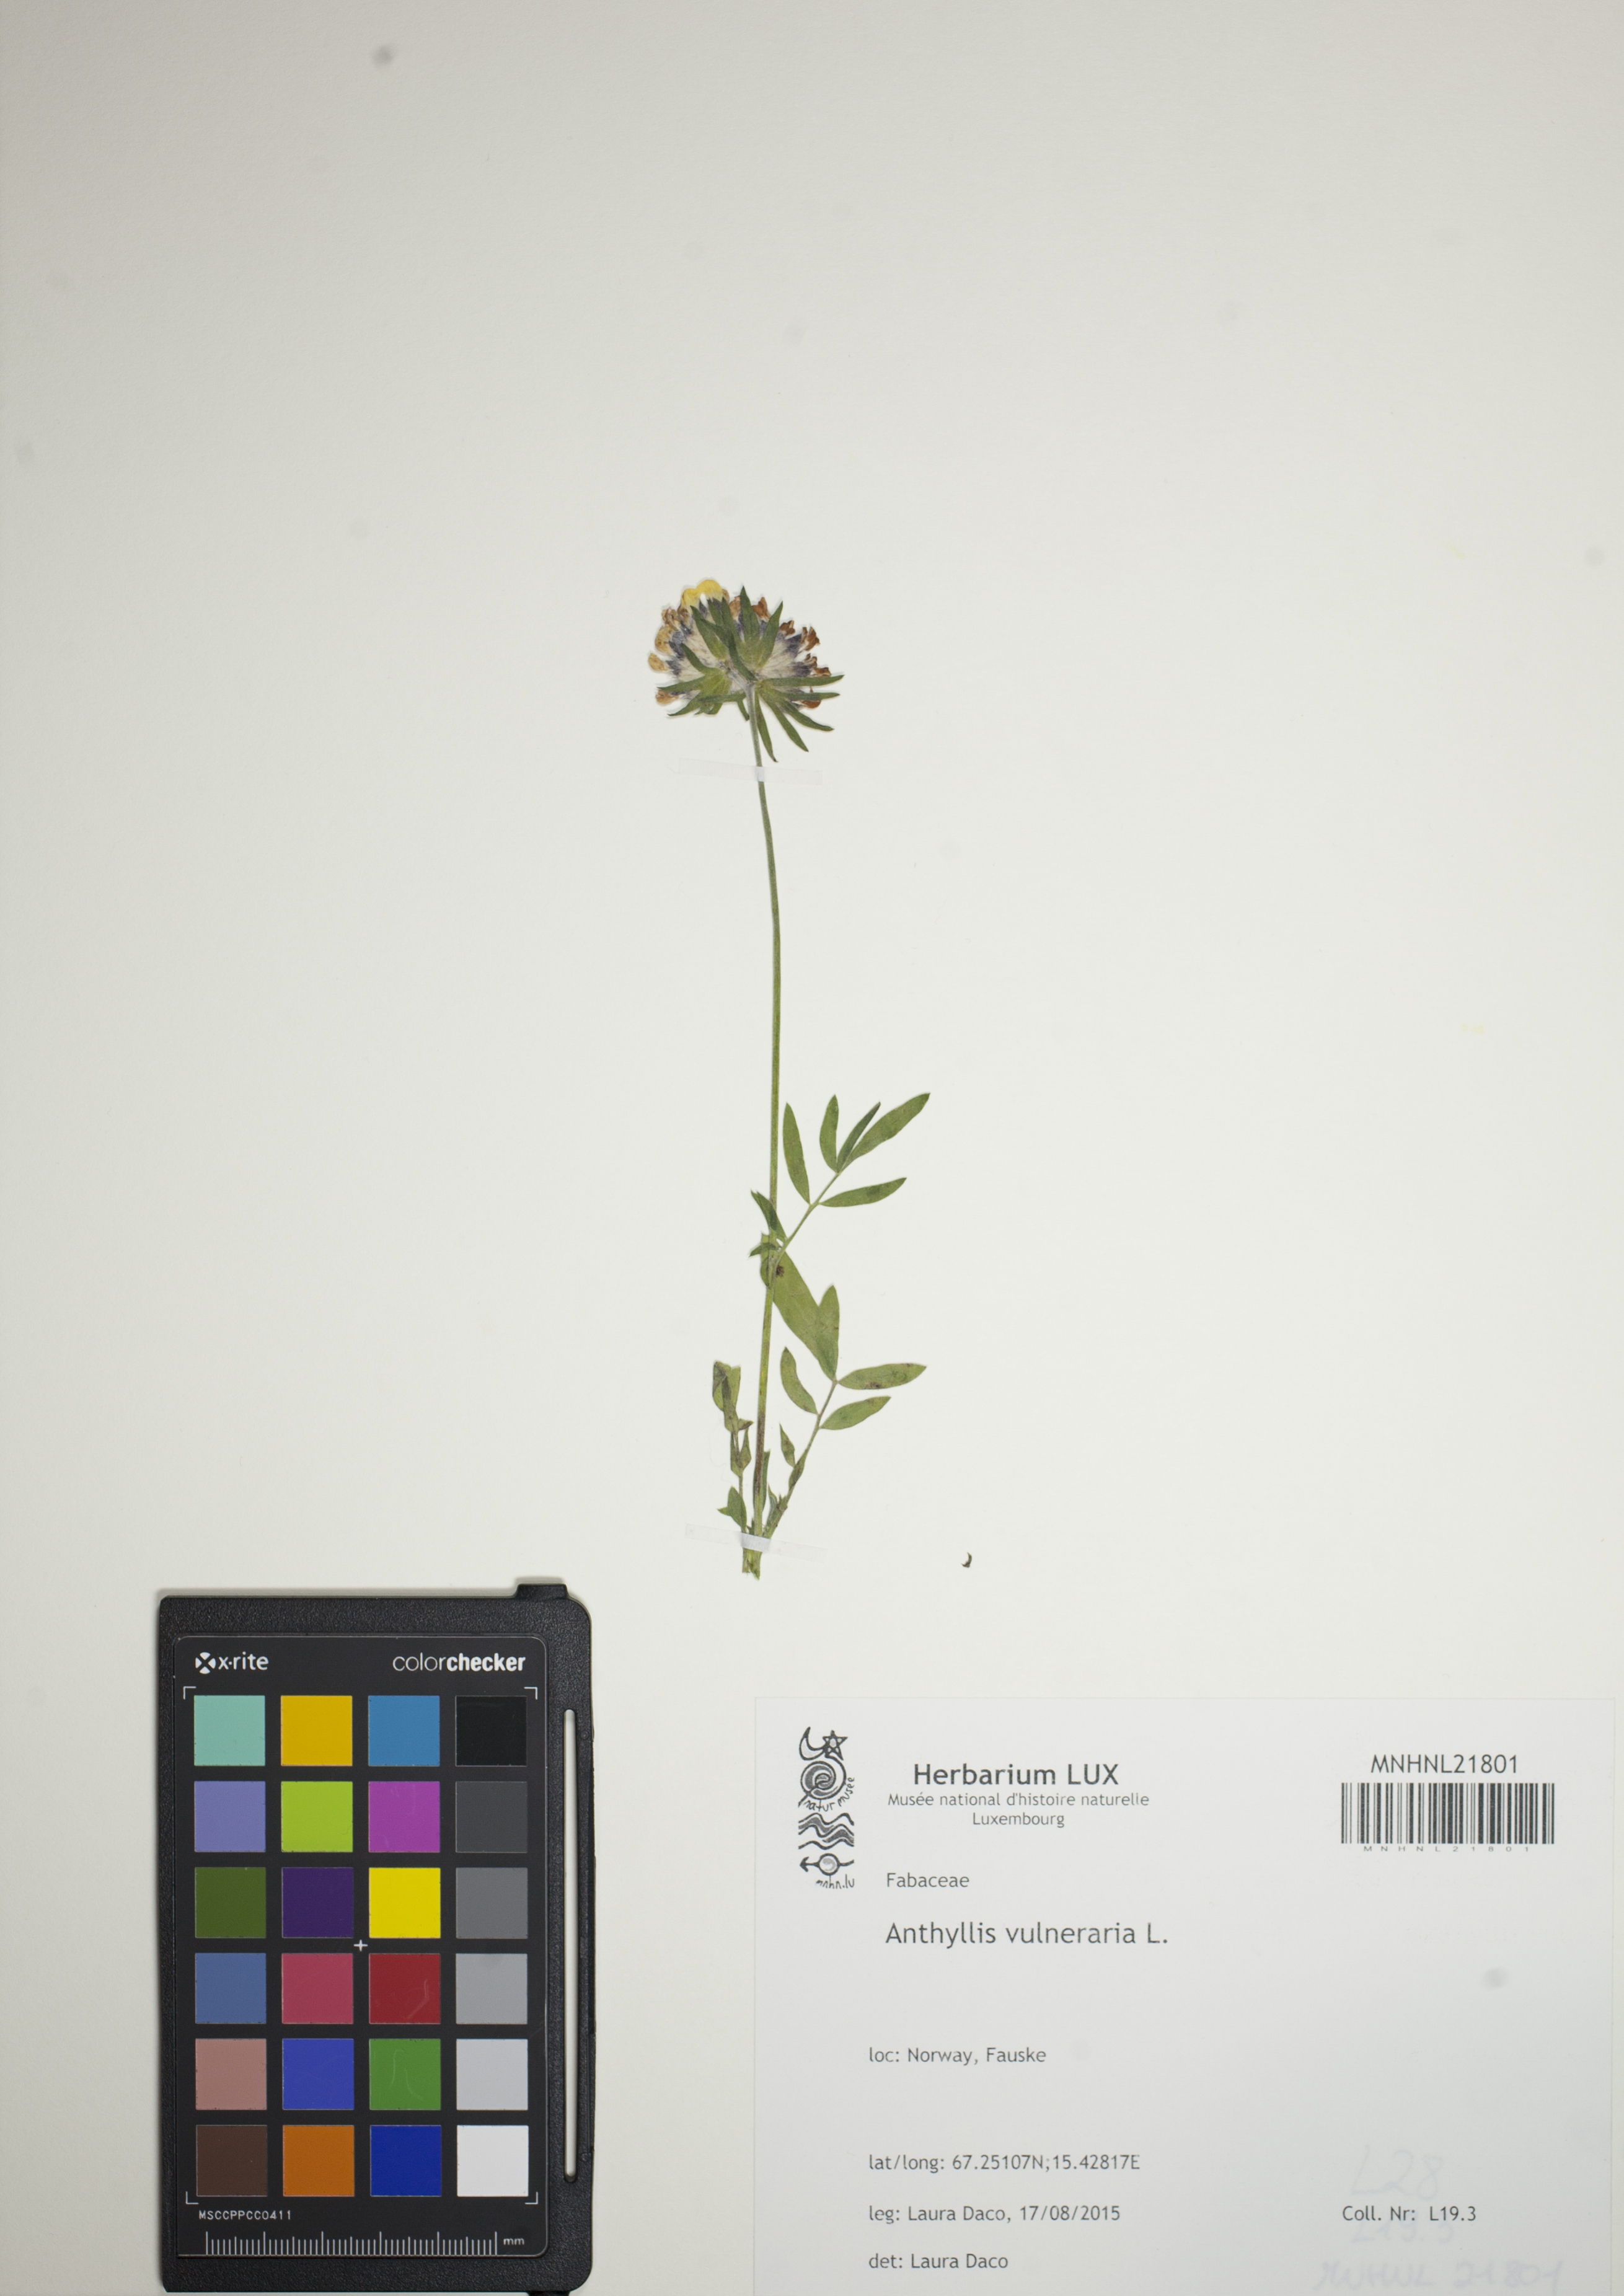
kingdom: Plantae
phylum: Tracheophyta
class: Magnoliopsida
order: Fabales
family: Fabaceae
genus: Anthyllis
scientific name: Anthyllis vulneraria
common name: Kidney vetch
